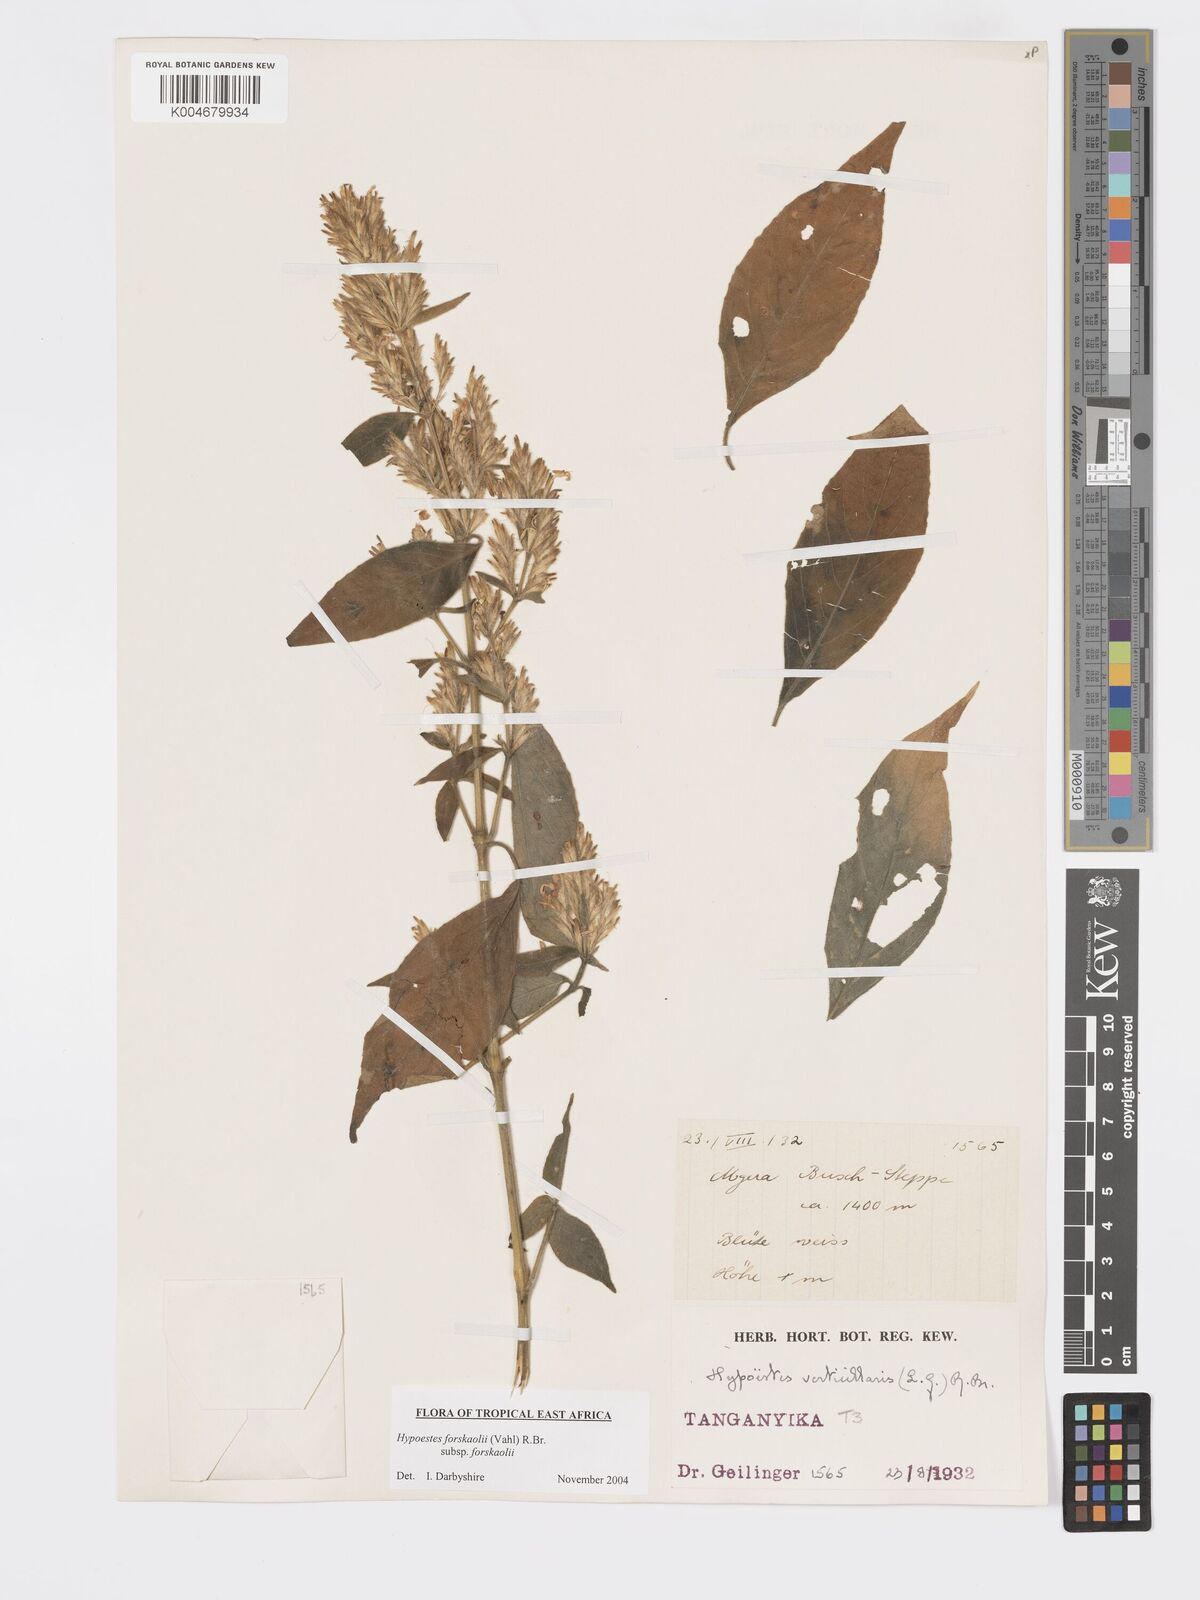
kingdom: Plantae
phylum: Tracheophyta
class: Magnoliopsida
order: Lamiales
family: Acanthaceae
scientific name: Acanthaceae
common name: Acanthaceae
